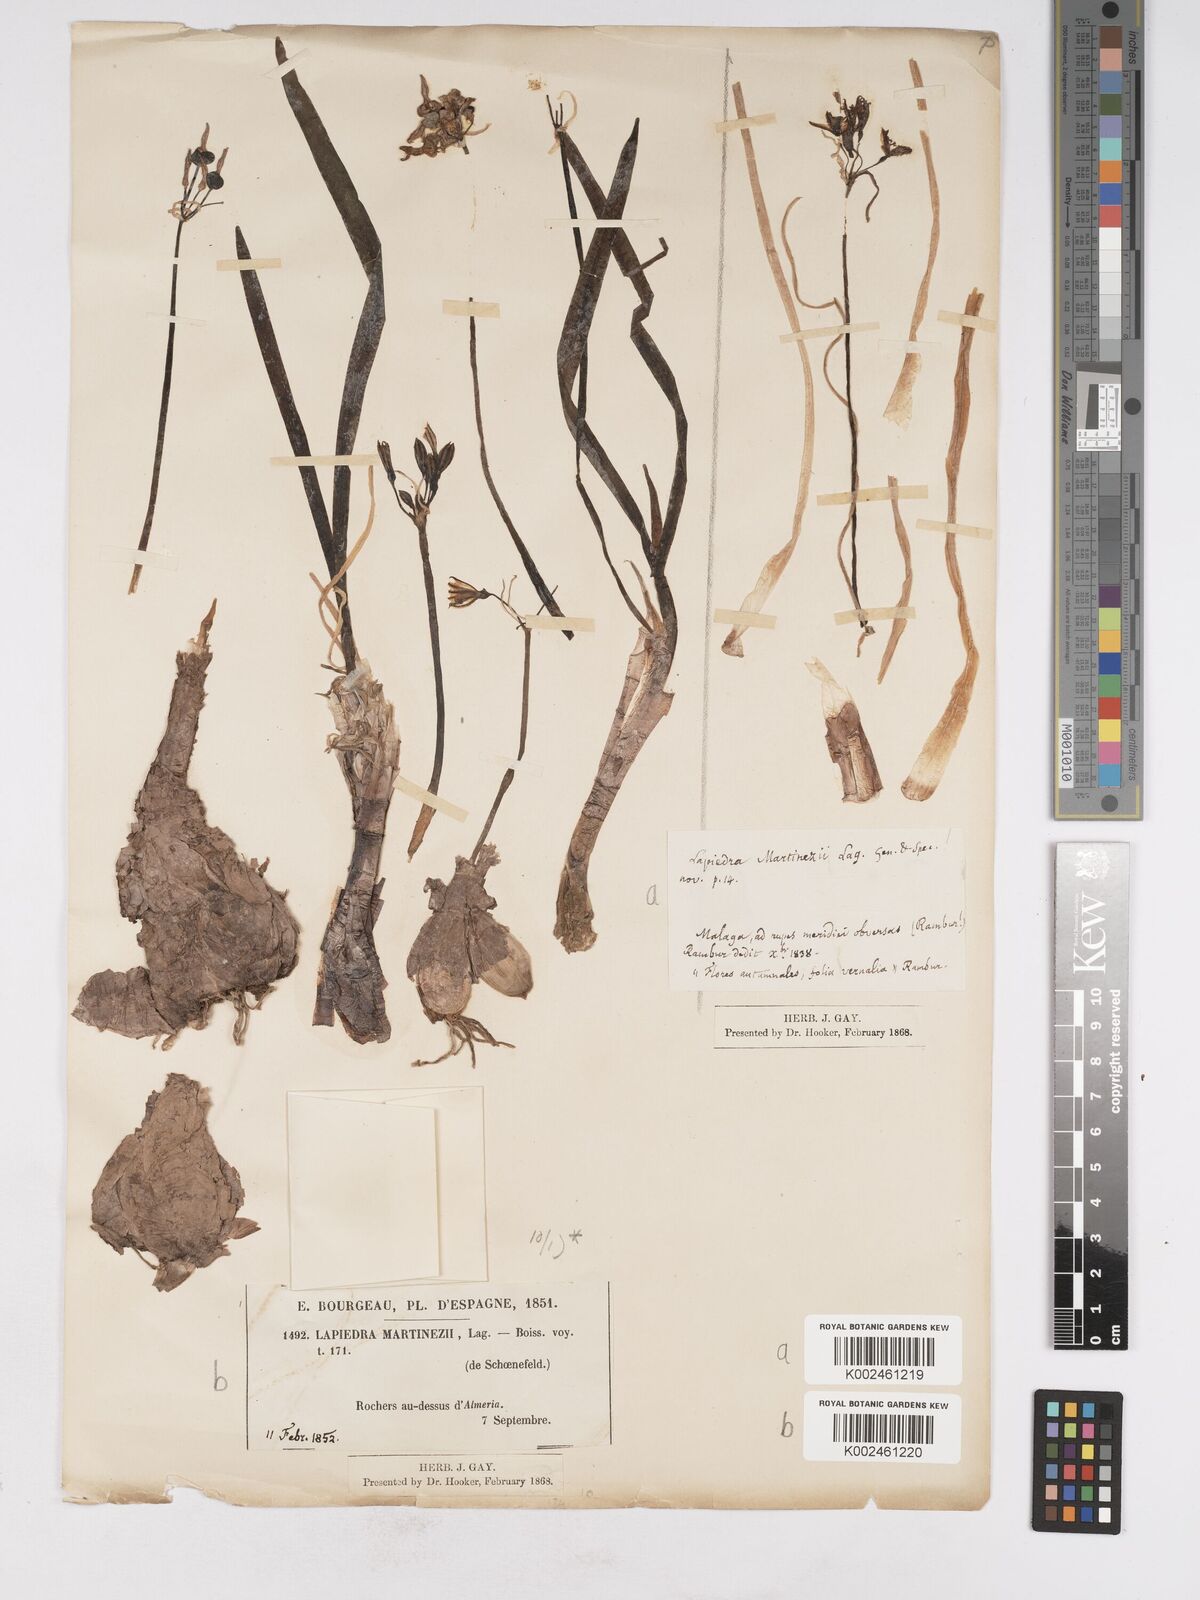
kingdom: Plantae
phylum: Tracheophyta
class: Liliopsida
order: Asparagales
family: Amaryllidaceae
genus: Lapiedra
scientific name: Lapiedra martinezii
